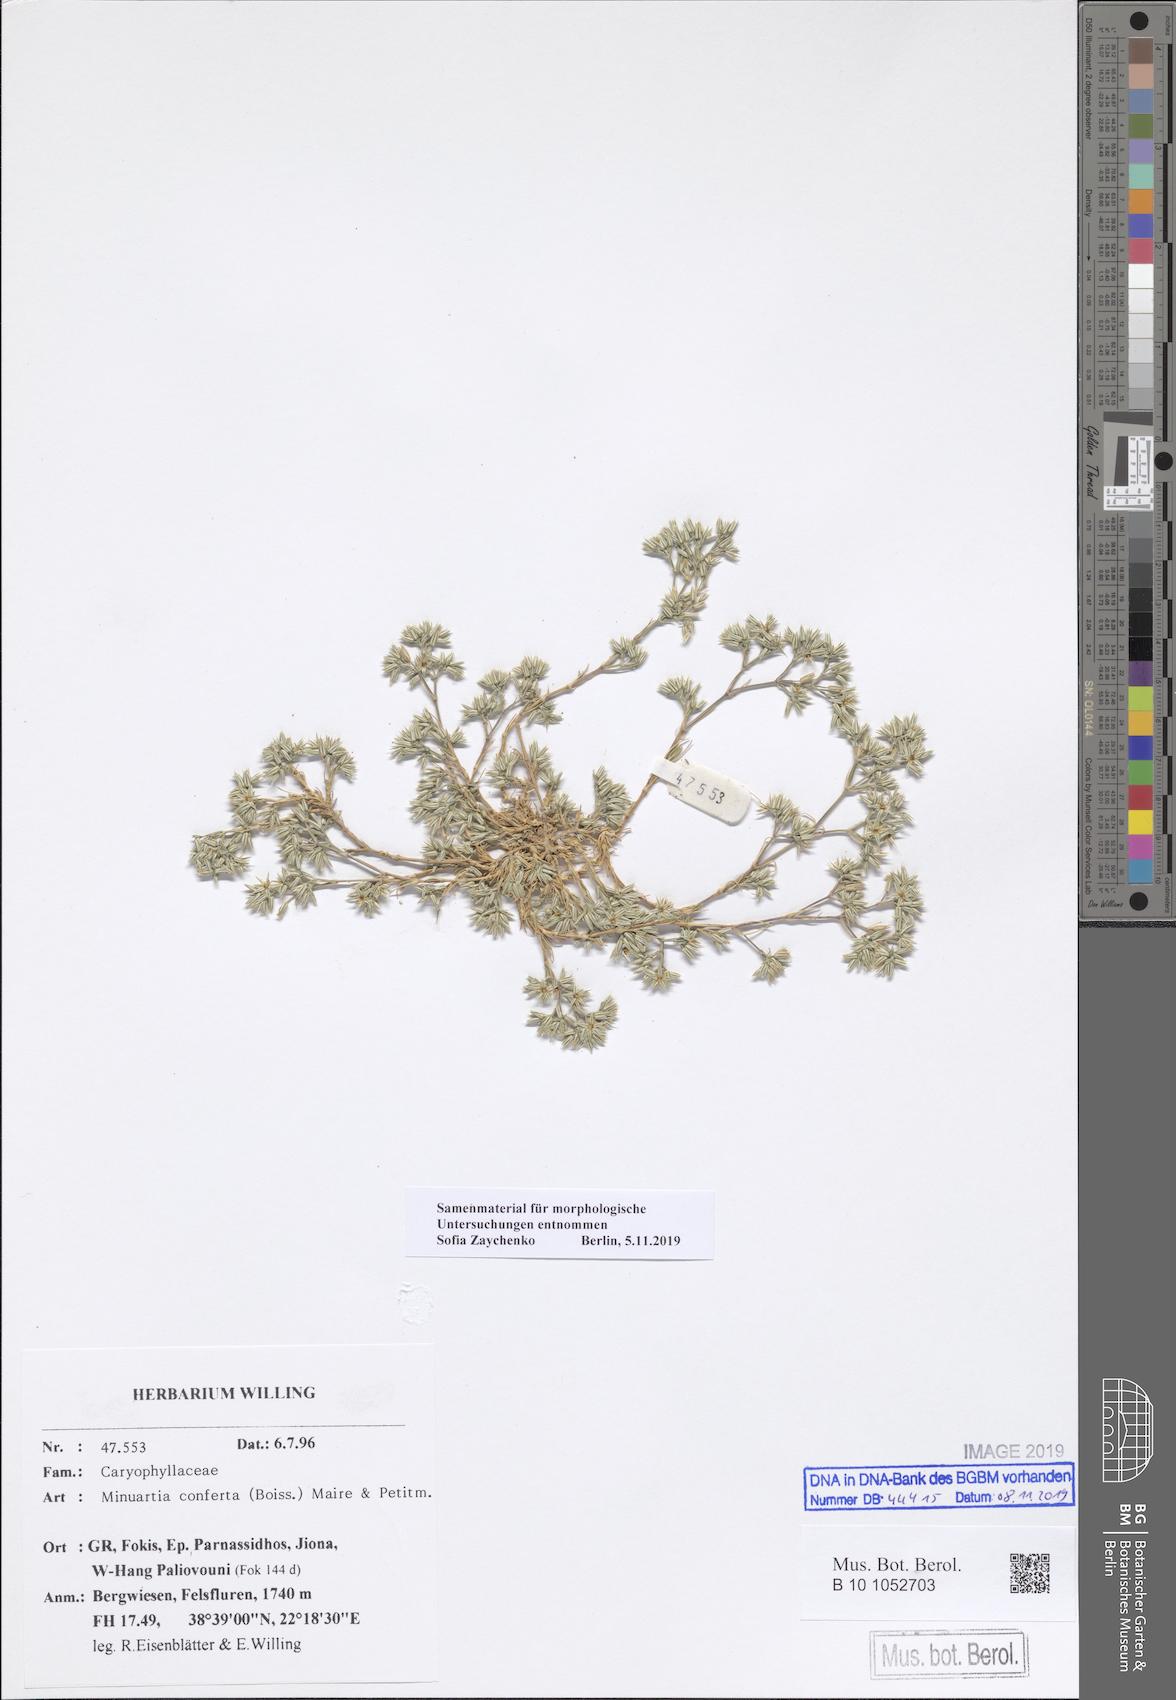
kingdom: Plantae
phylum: Tracheophyta
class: Magnoliopsida
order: Caryophyllales
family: Caryophyllaceae
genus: Minuartia
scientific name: Minuartia confusa
